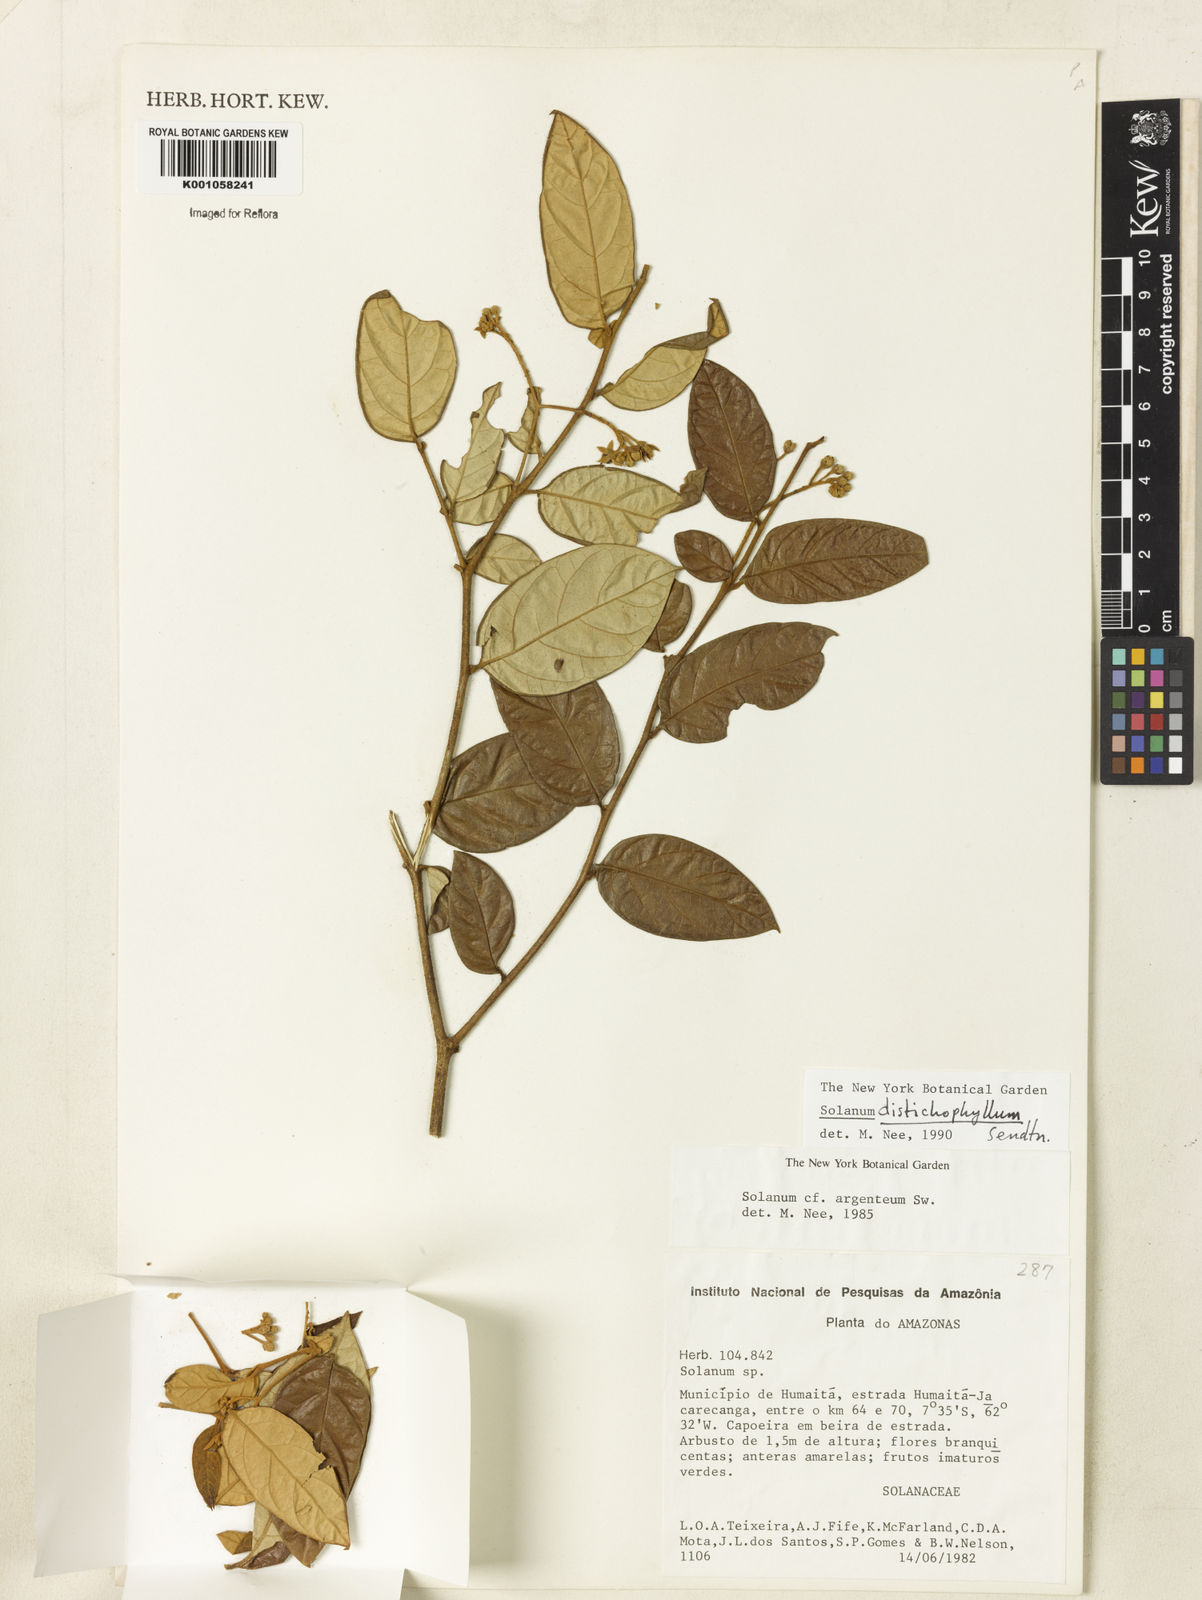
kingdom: Plantae
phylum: Tracheophyta
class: Magnoliopsida
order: Solanales
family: Solanaceae
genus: Solanum
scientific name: Solanum distichophyllum
